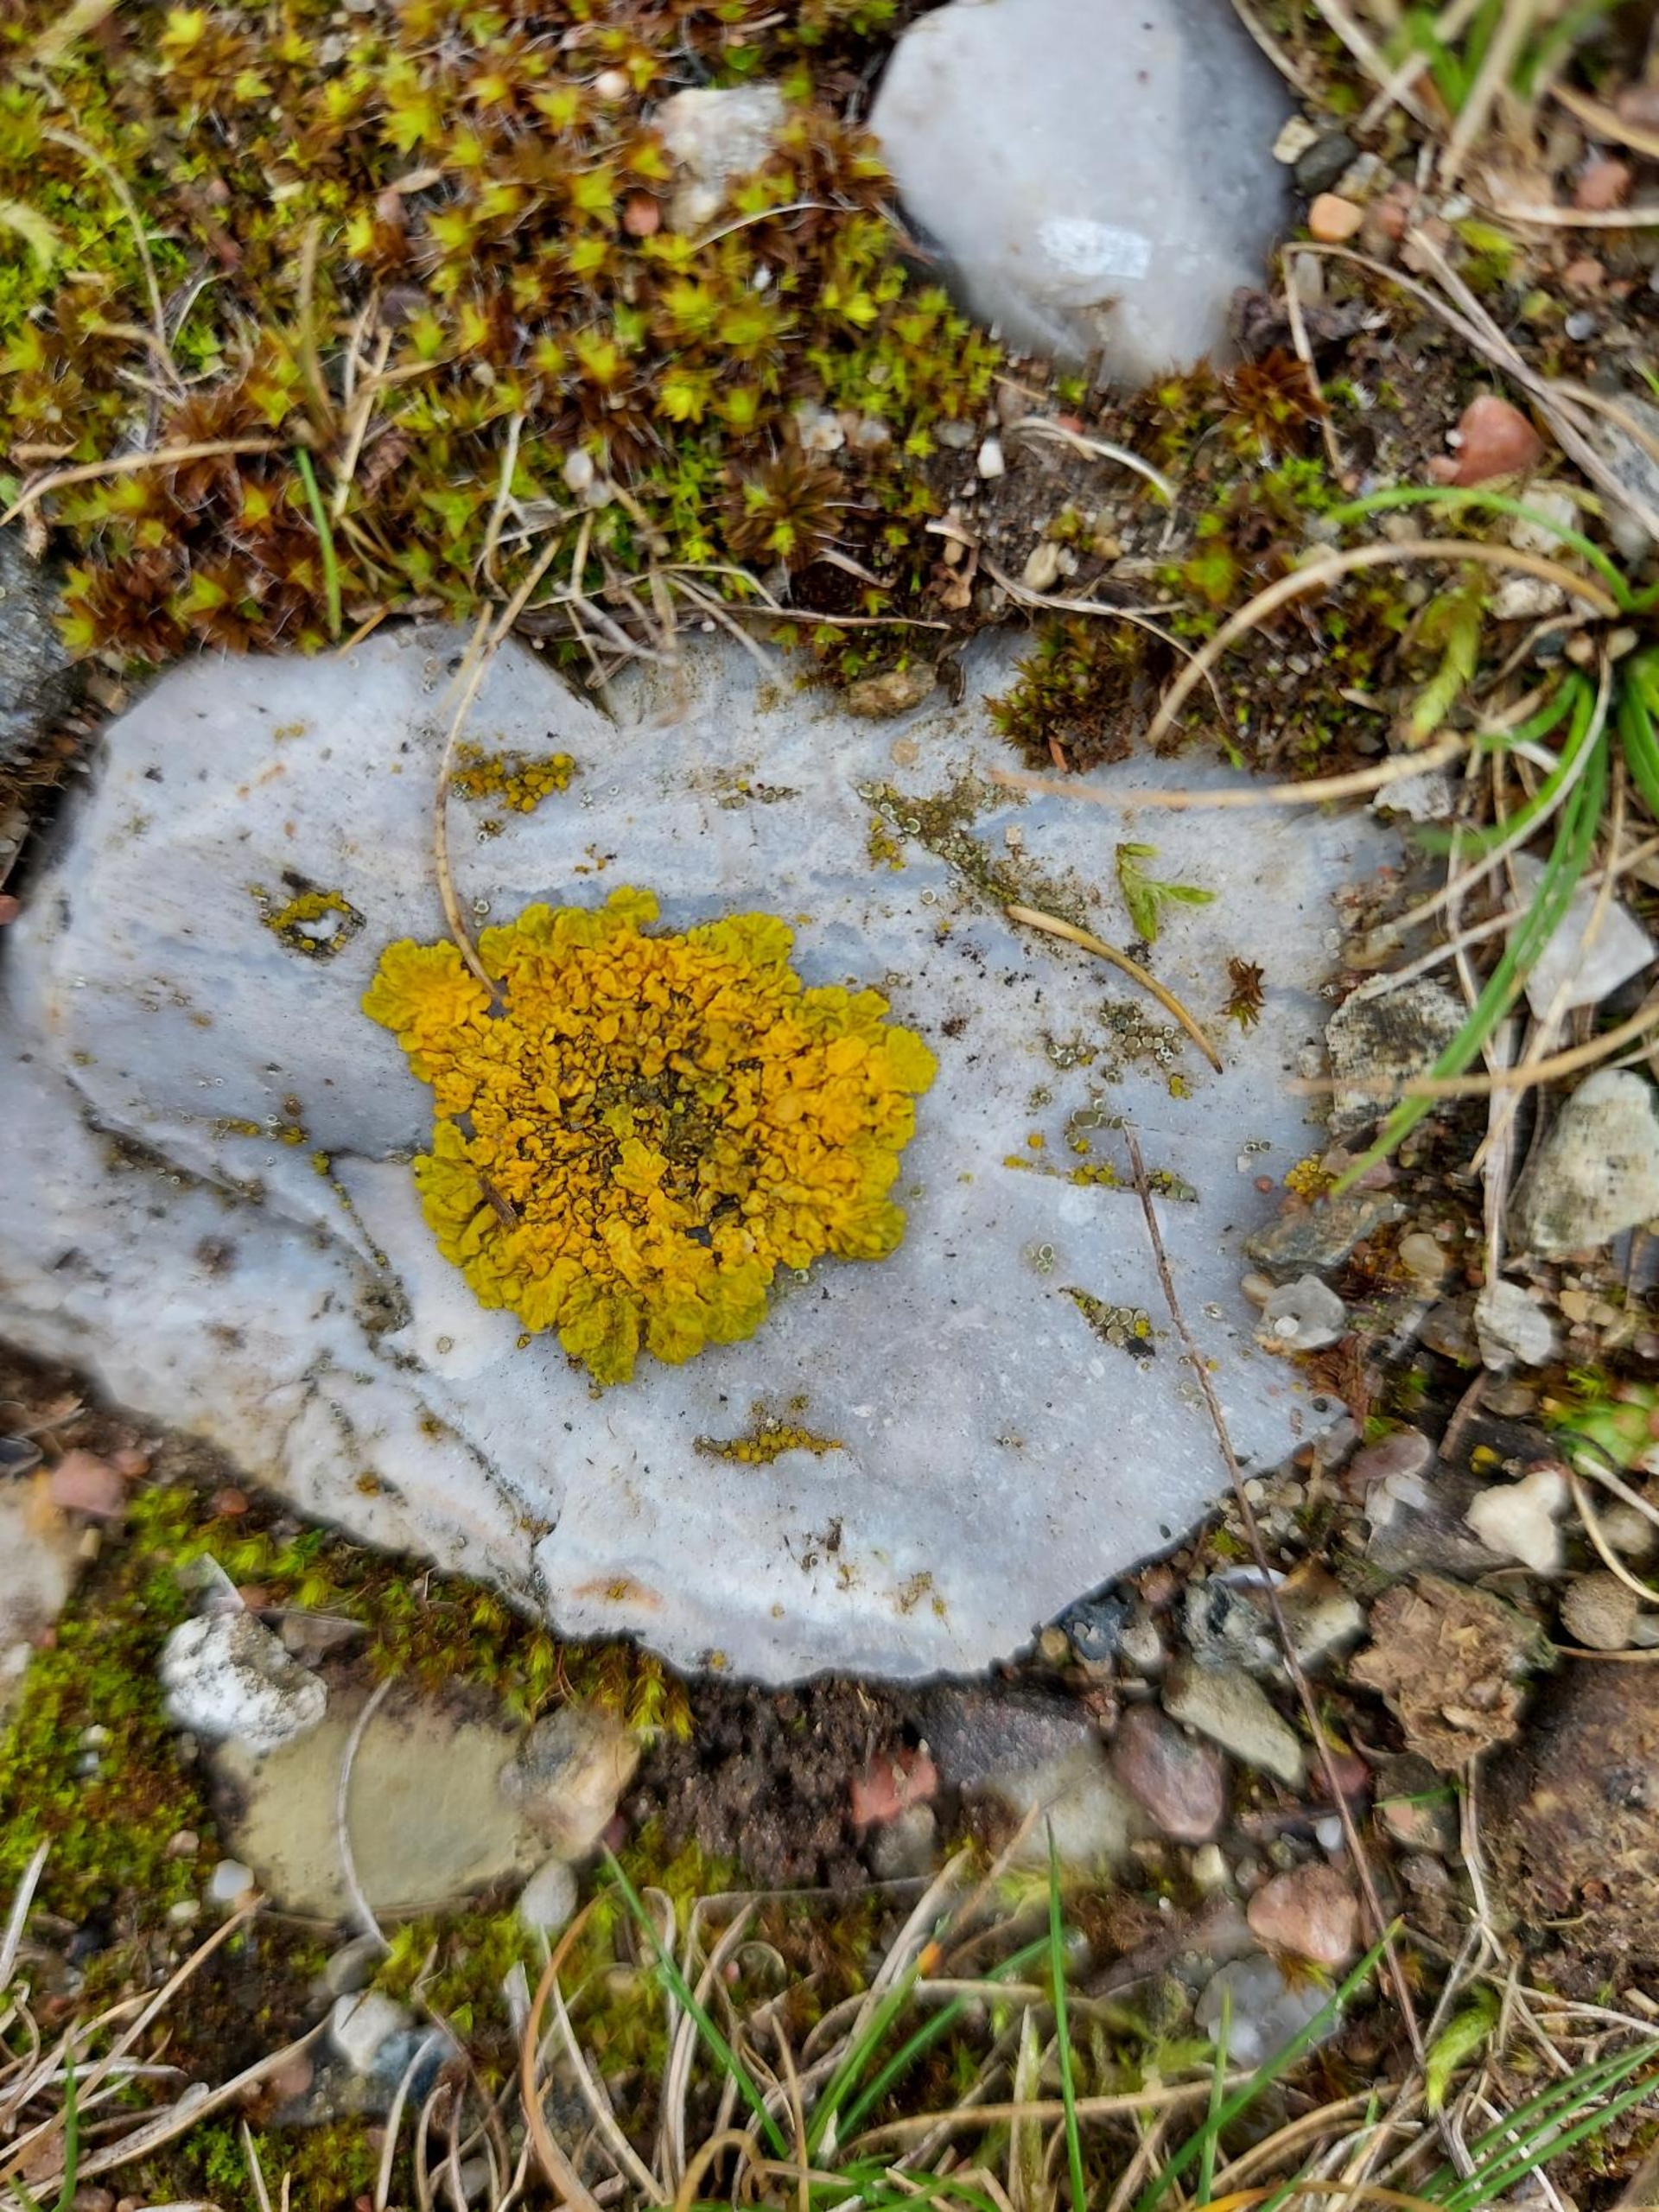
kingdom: Fungi
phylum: Ascomycota
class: Lecanoromycetes
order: Teloschistales
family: Teloschistaceae
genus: Xanthoria
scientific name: Xanthoria parietina
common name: Almindelig væggelav
